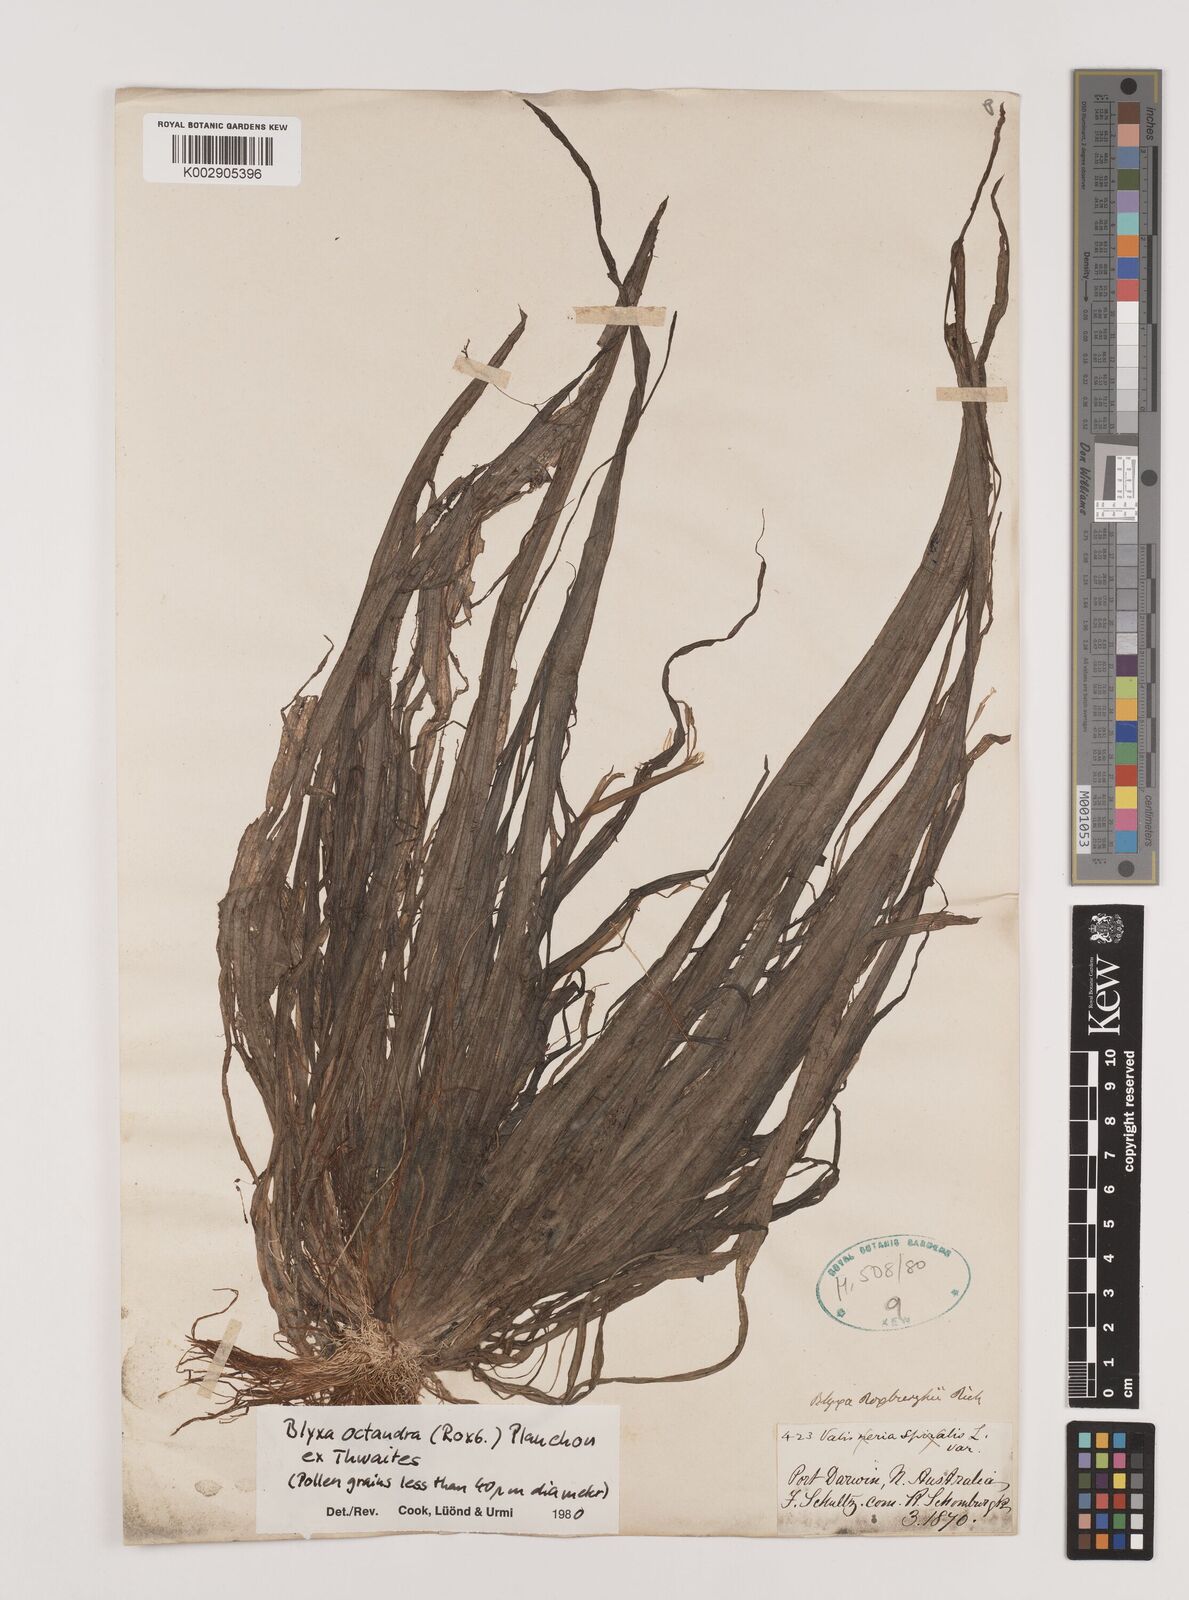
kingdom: Plantae
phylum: Tracheophyta
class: Liliopsida
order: Alismatales
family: Hydrocharitaceae
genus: Blyxa
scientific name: Blyxa octandra
